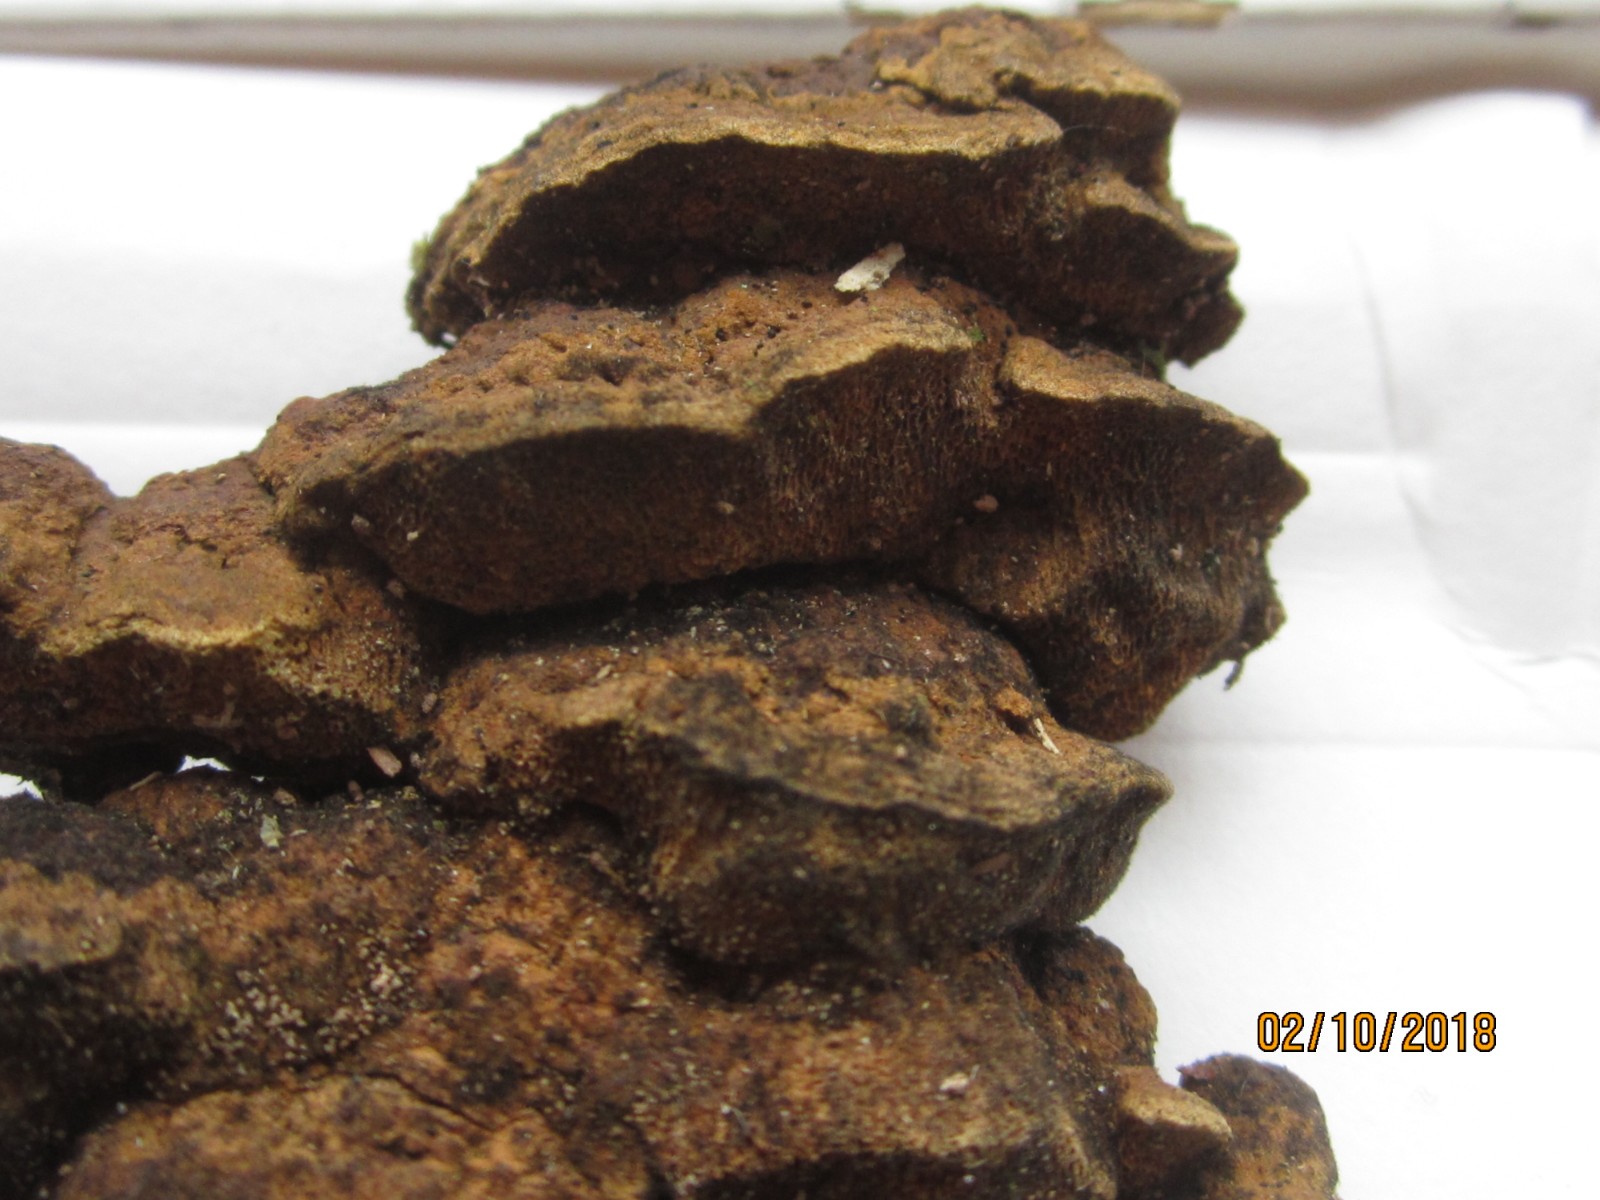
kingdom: Fungi
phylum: Basidiomycota
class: Agaricomycetes
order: Polyporales
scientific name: Polyporales
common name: poresvampordenen
